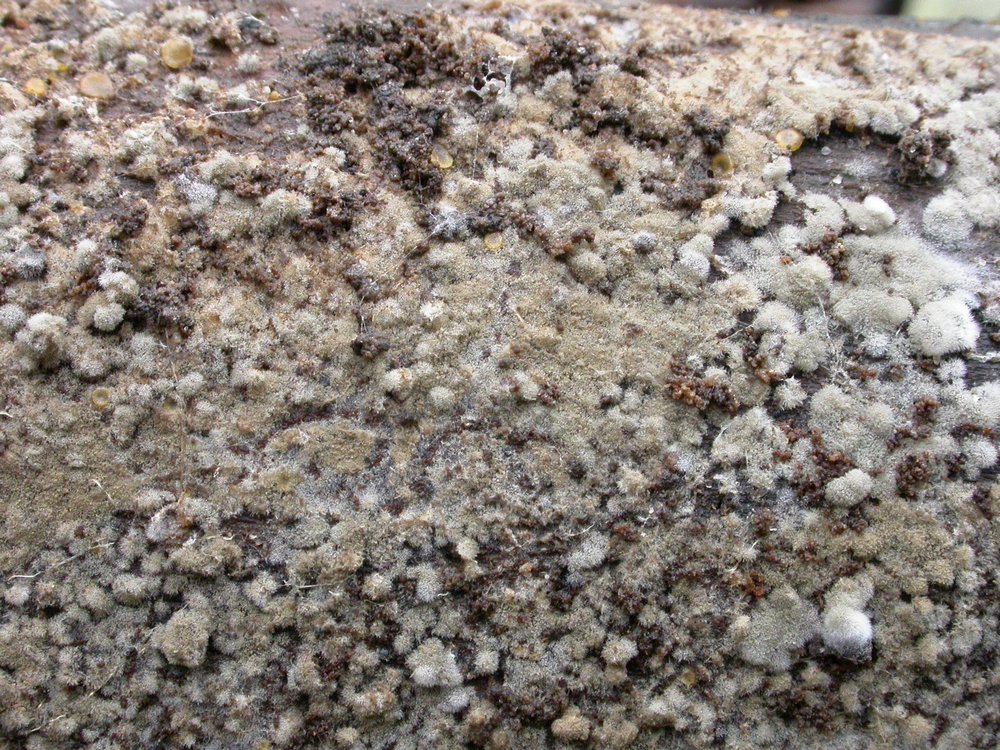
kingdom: Fungi
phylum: Basidiomycota
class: Agaricomycetes
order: Cantharellales
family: Botryobasidiaceae
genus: Botryobasidium
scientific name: Botryobasidium conspersum
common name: olivengrå spindhinde
